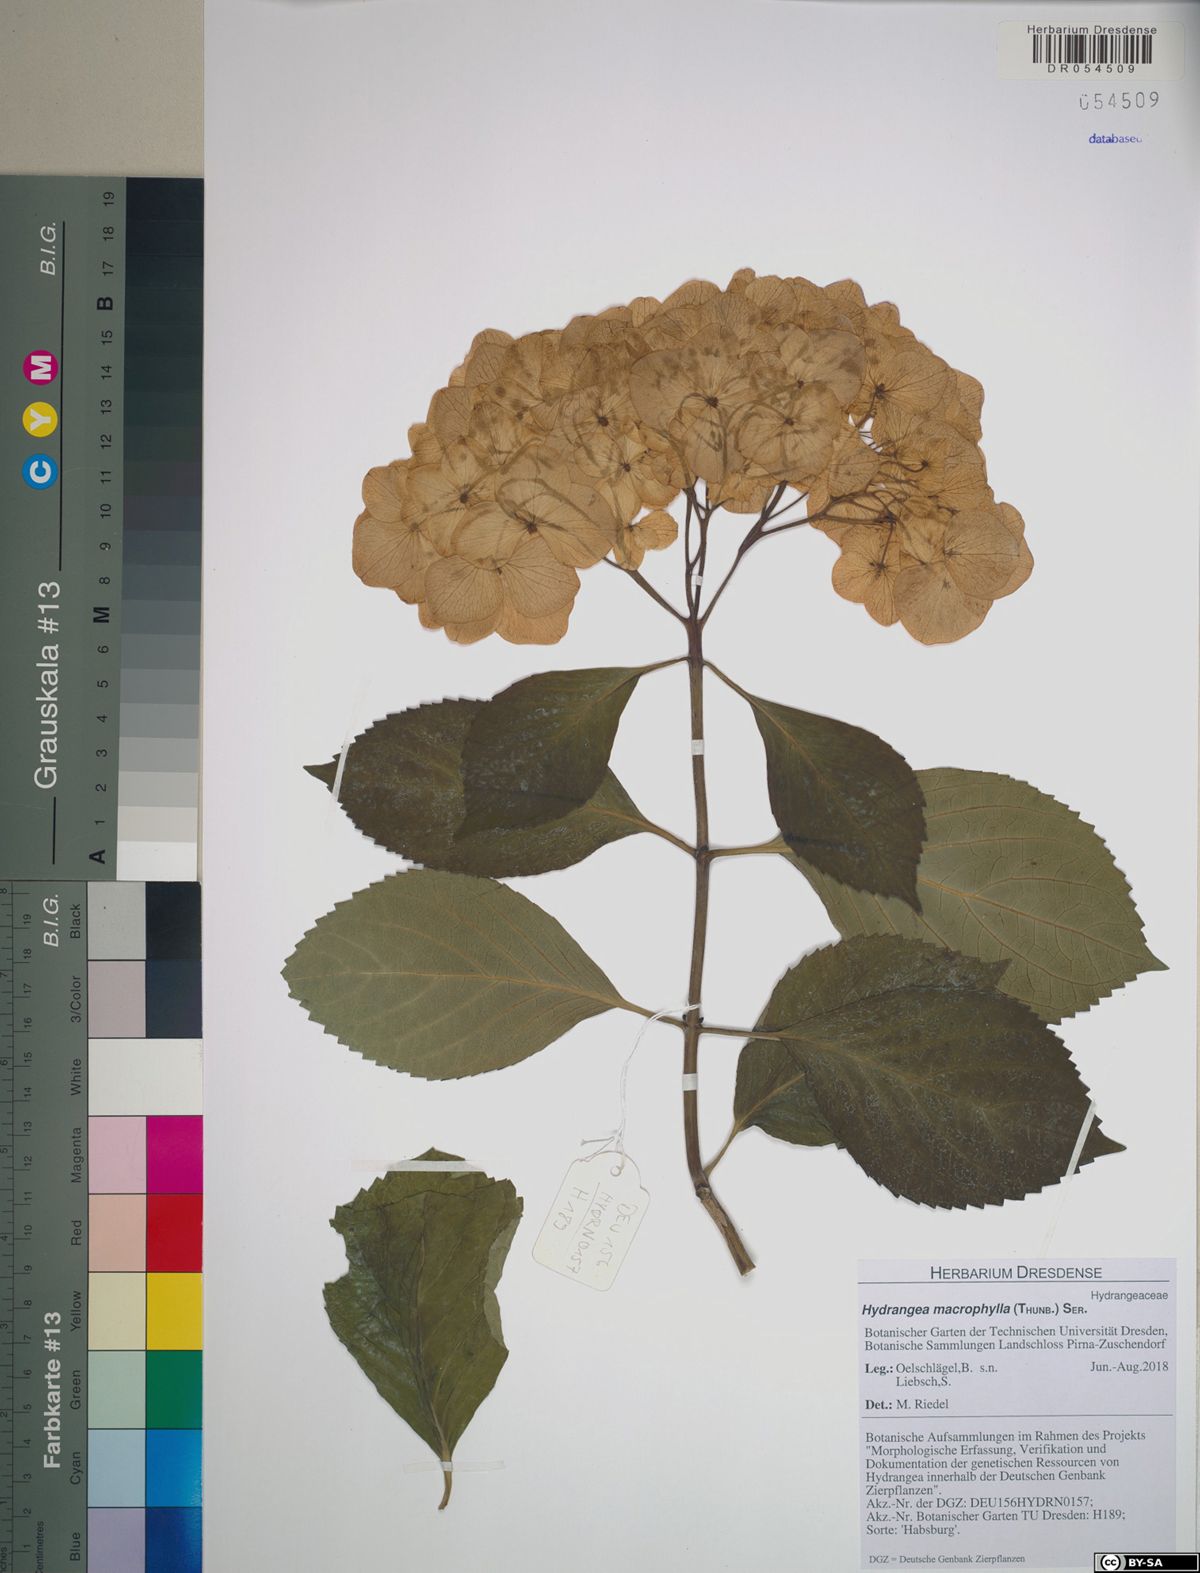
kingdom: Plantae
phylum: Tracheophyta
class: Magnoliopsida
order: Cornales
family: Hydrangeaceae
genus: Hydrangea
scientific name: Hydrangea macrophylla
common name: Hydrangea
